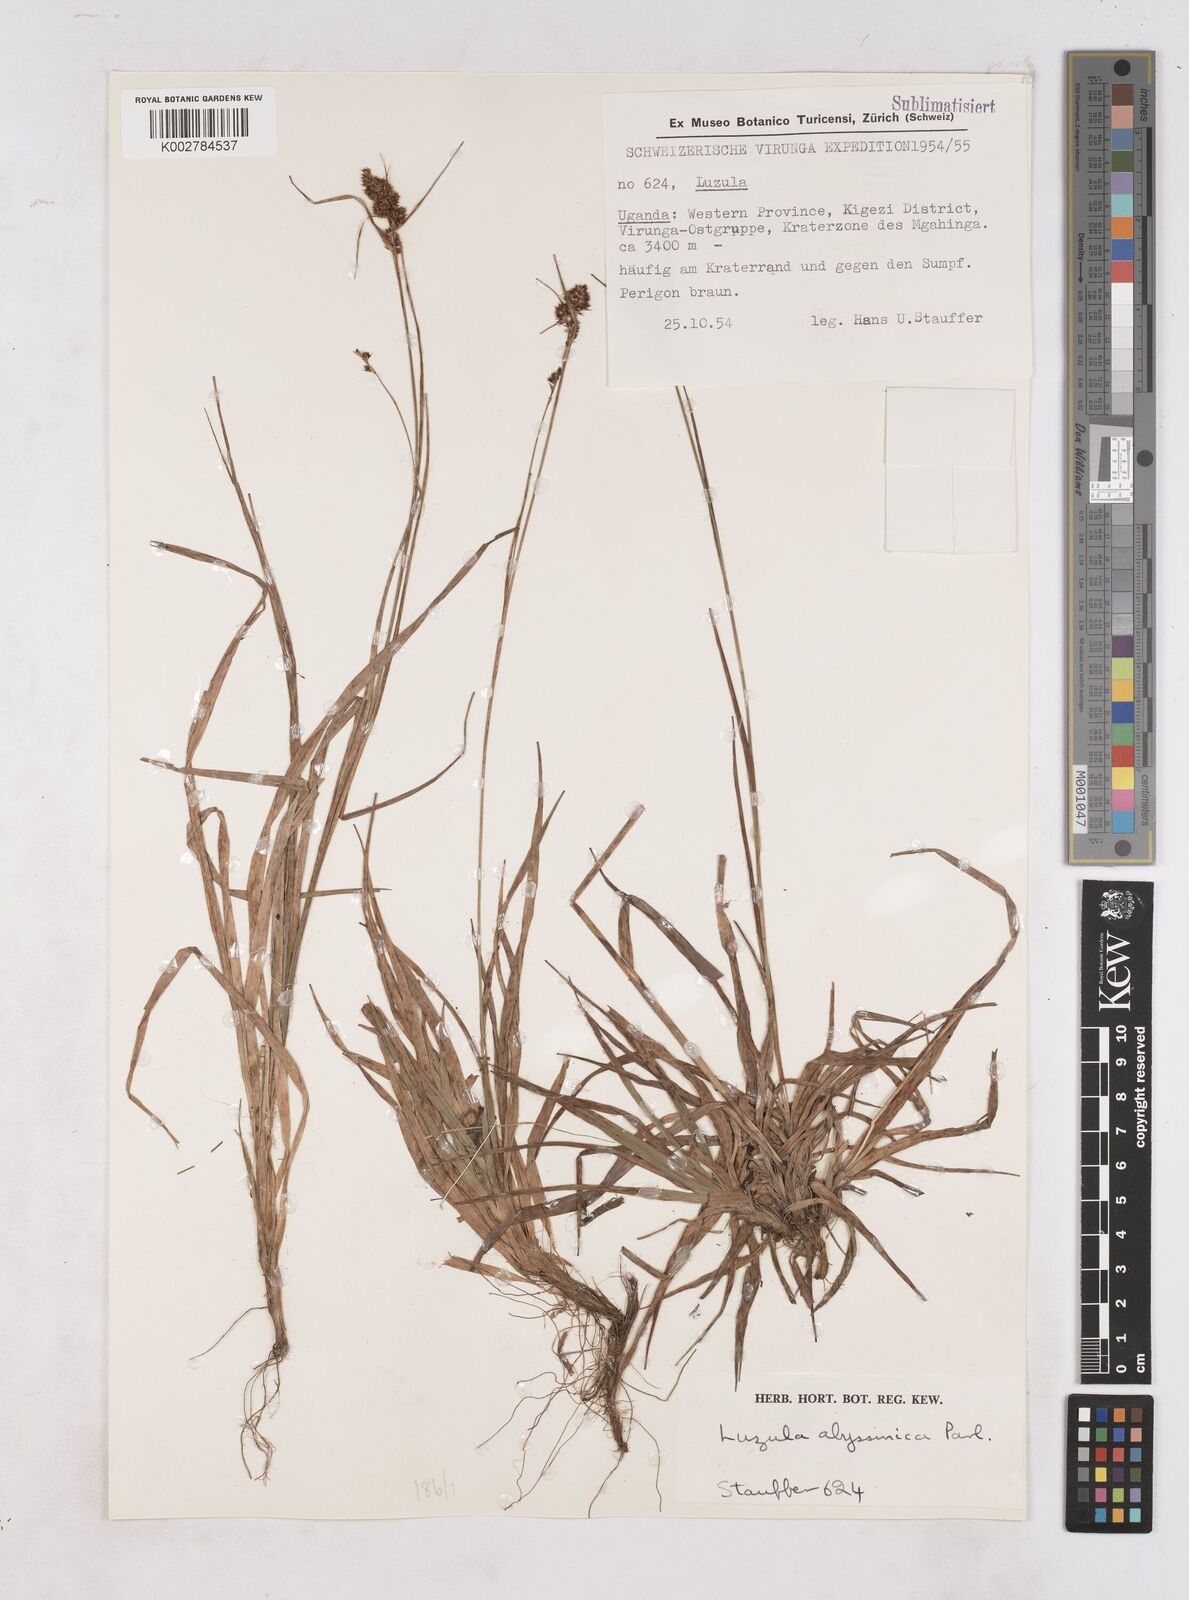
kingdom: Plantae
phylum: Tracheophyta
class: Liliopsida
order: Poales
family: Juncaceae
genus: Luzula
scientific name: Luzula abyssinica
